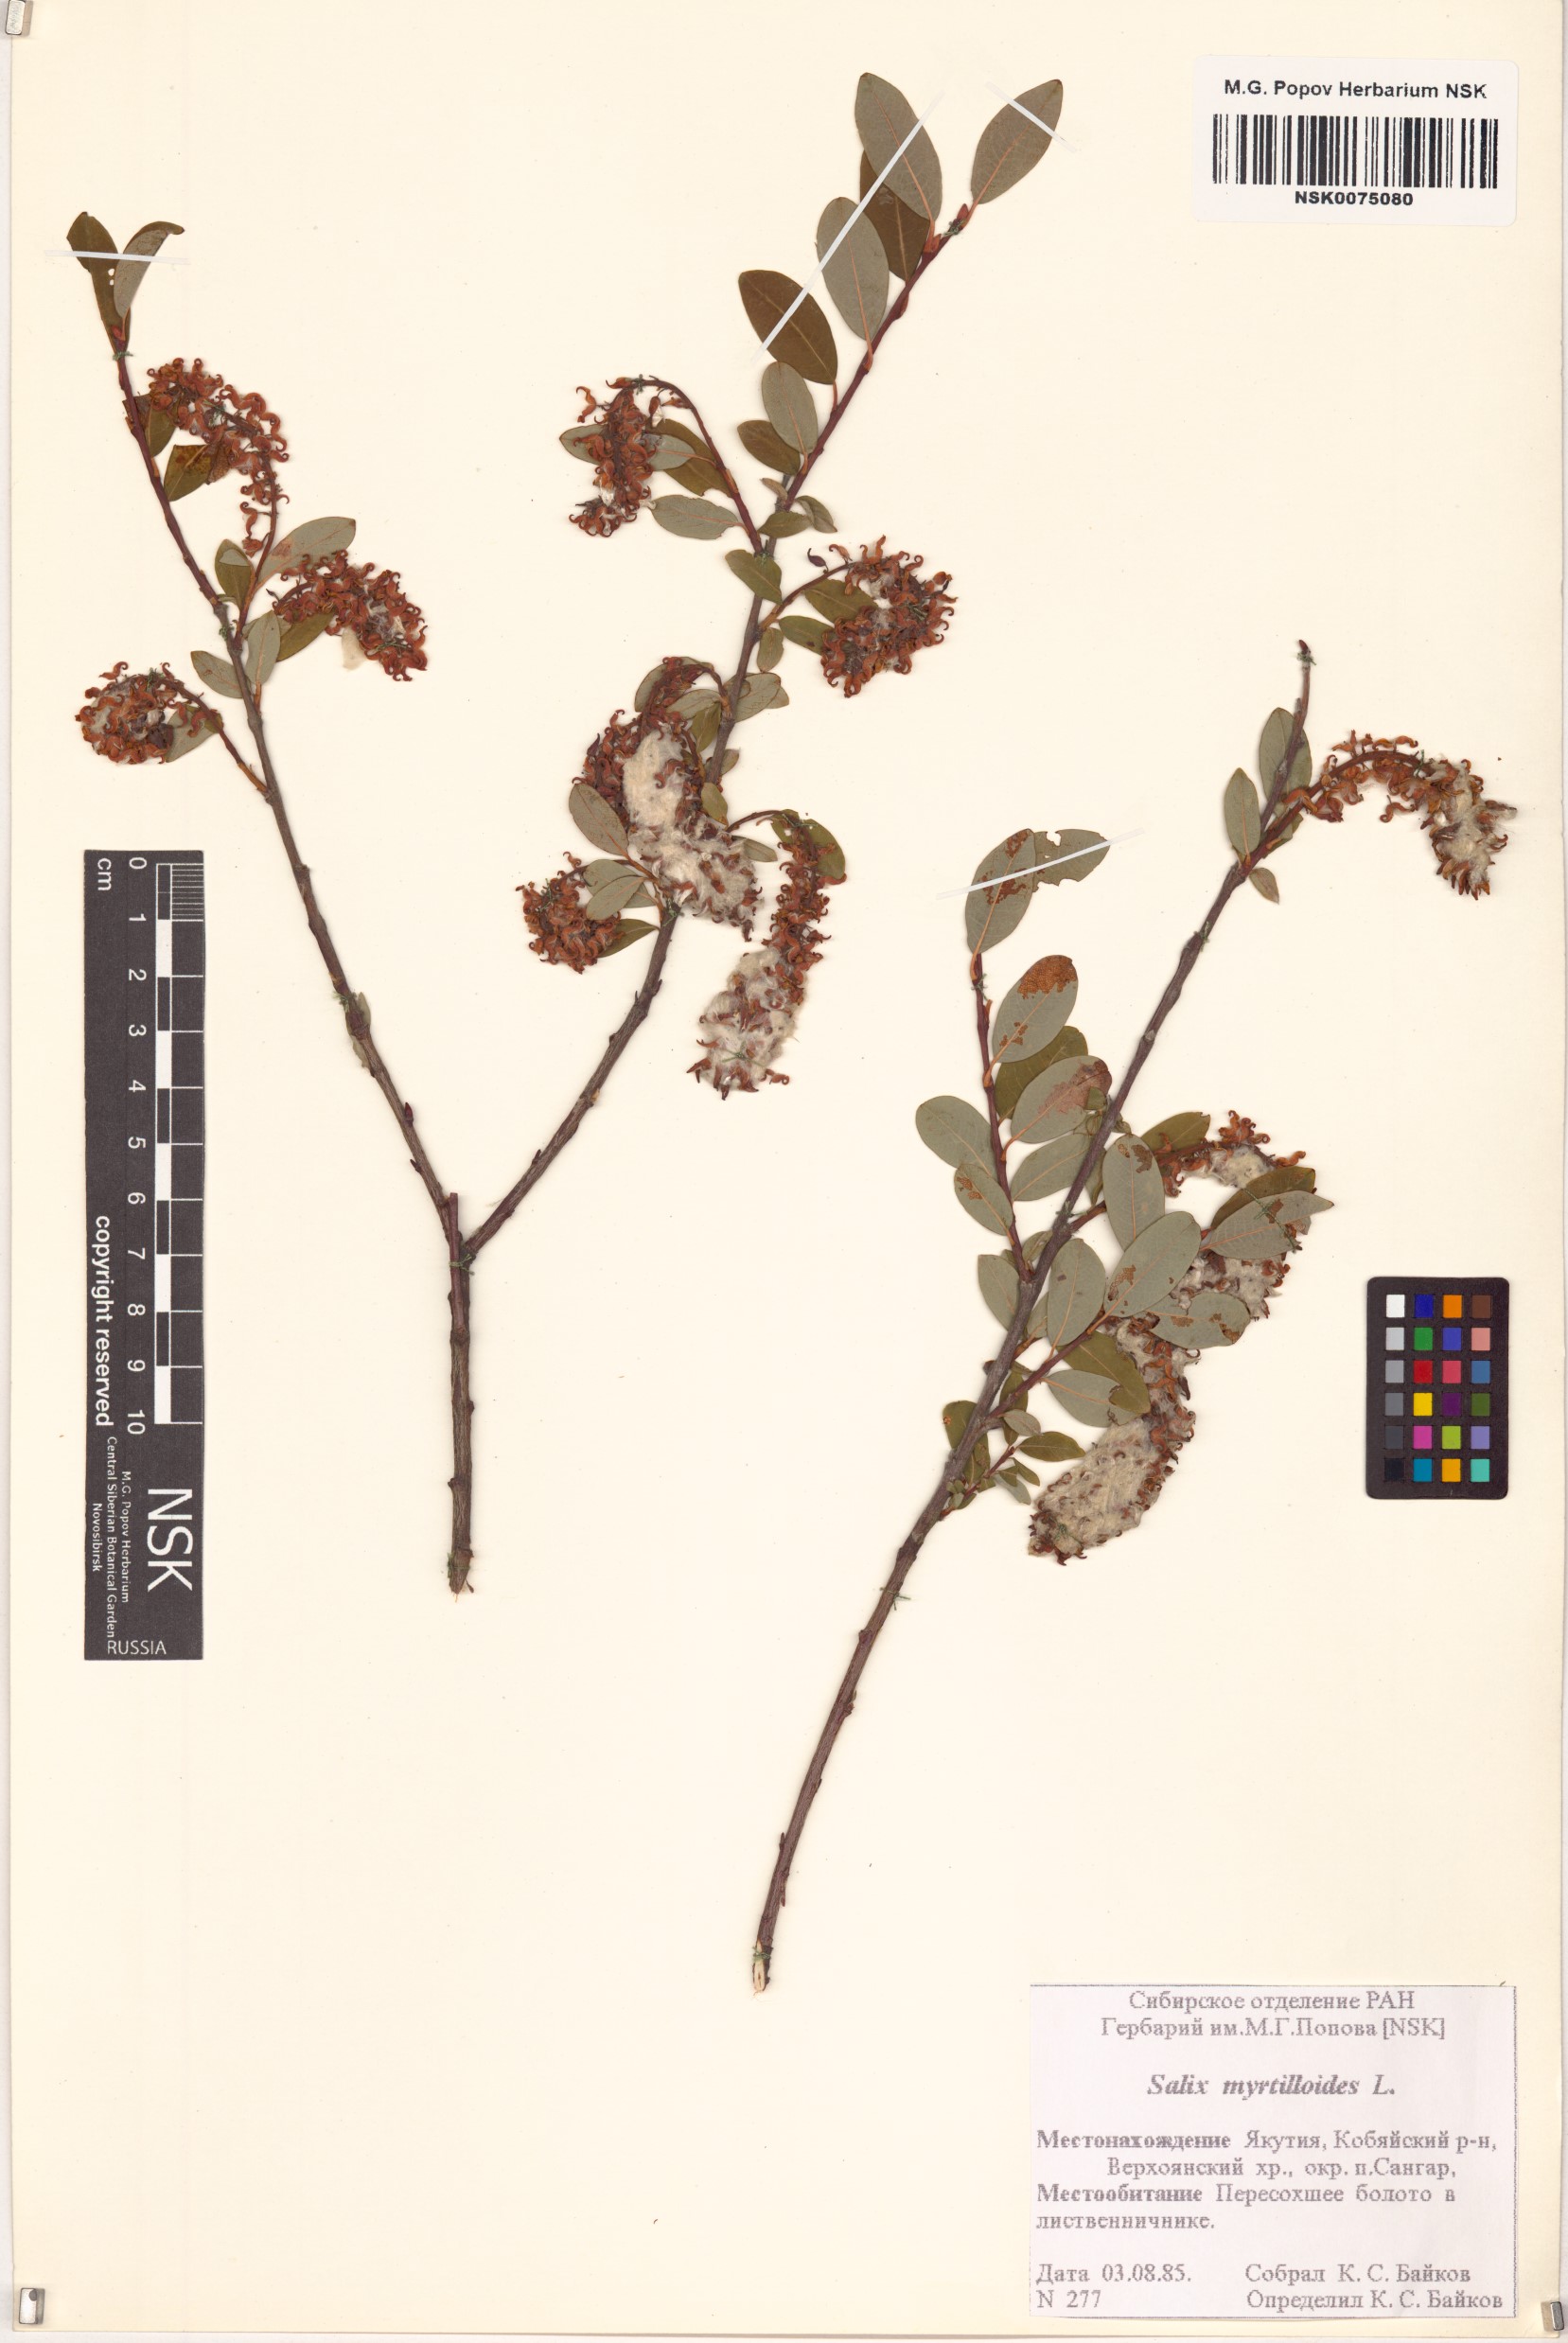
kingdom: Plantae
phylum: Tracheophyta
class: Magnoliopsida
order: Malpighiales
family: Salicaceae
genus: Salix
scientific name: Salix myrtilloides
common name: Myrtle-leaved willow
